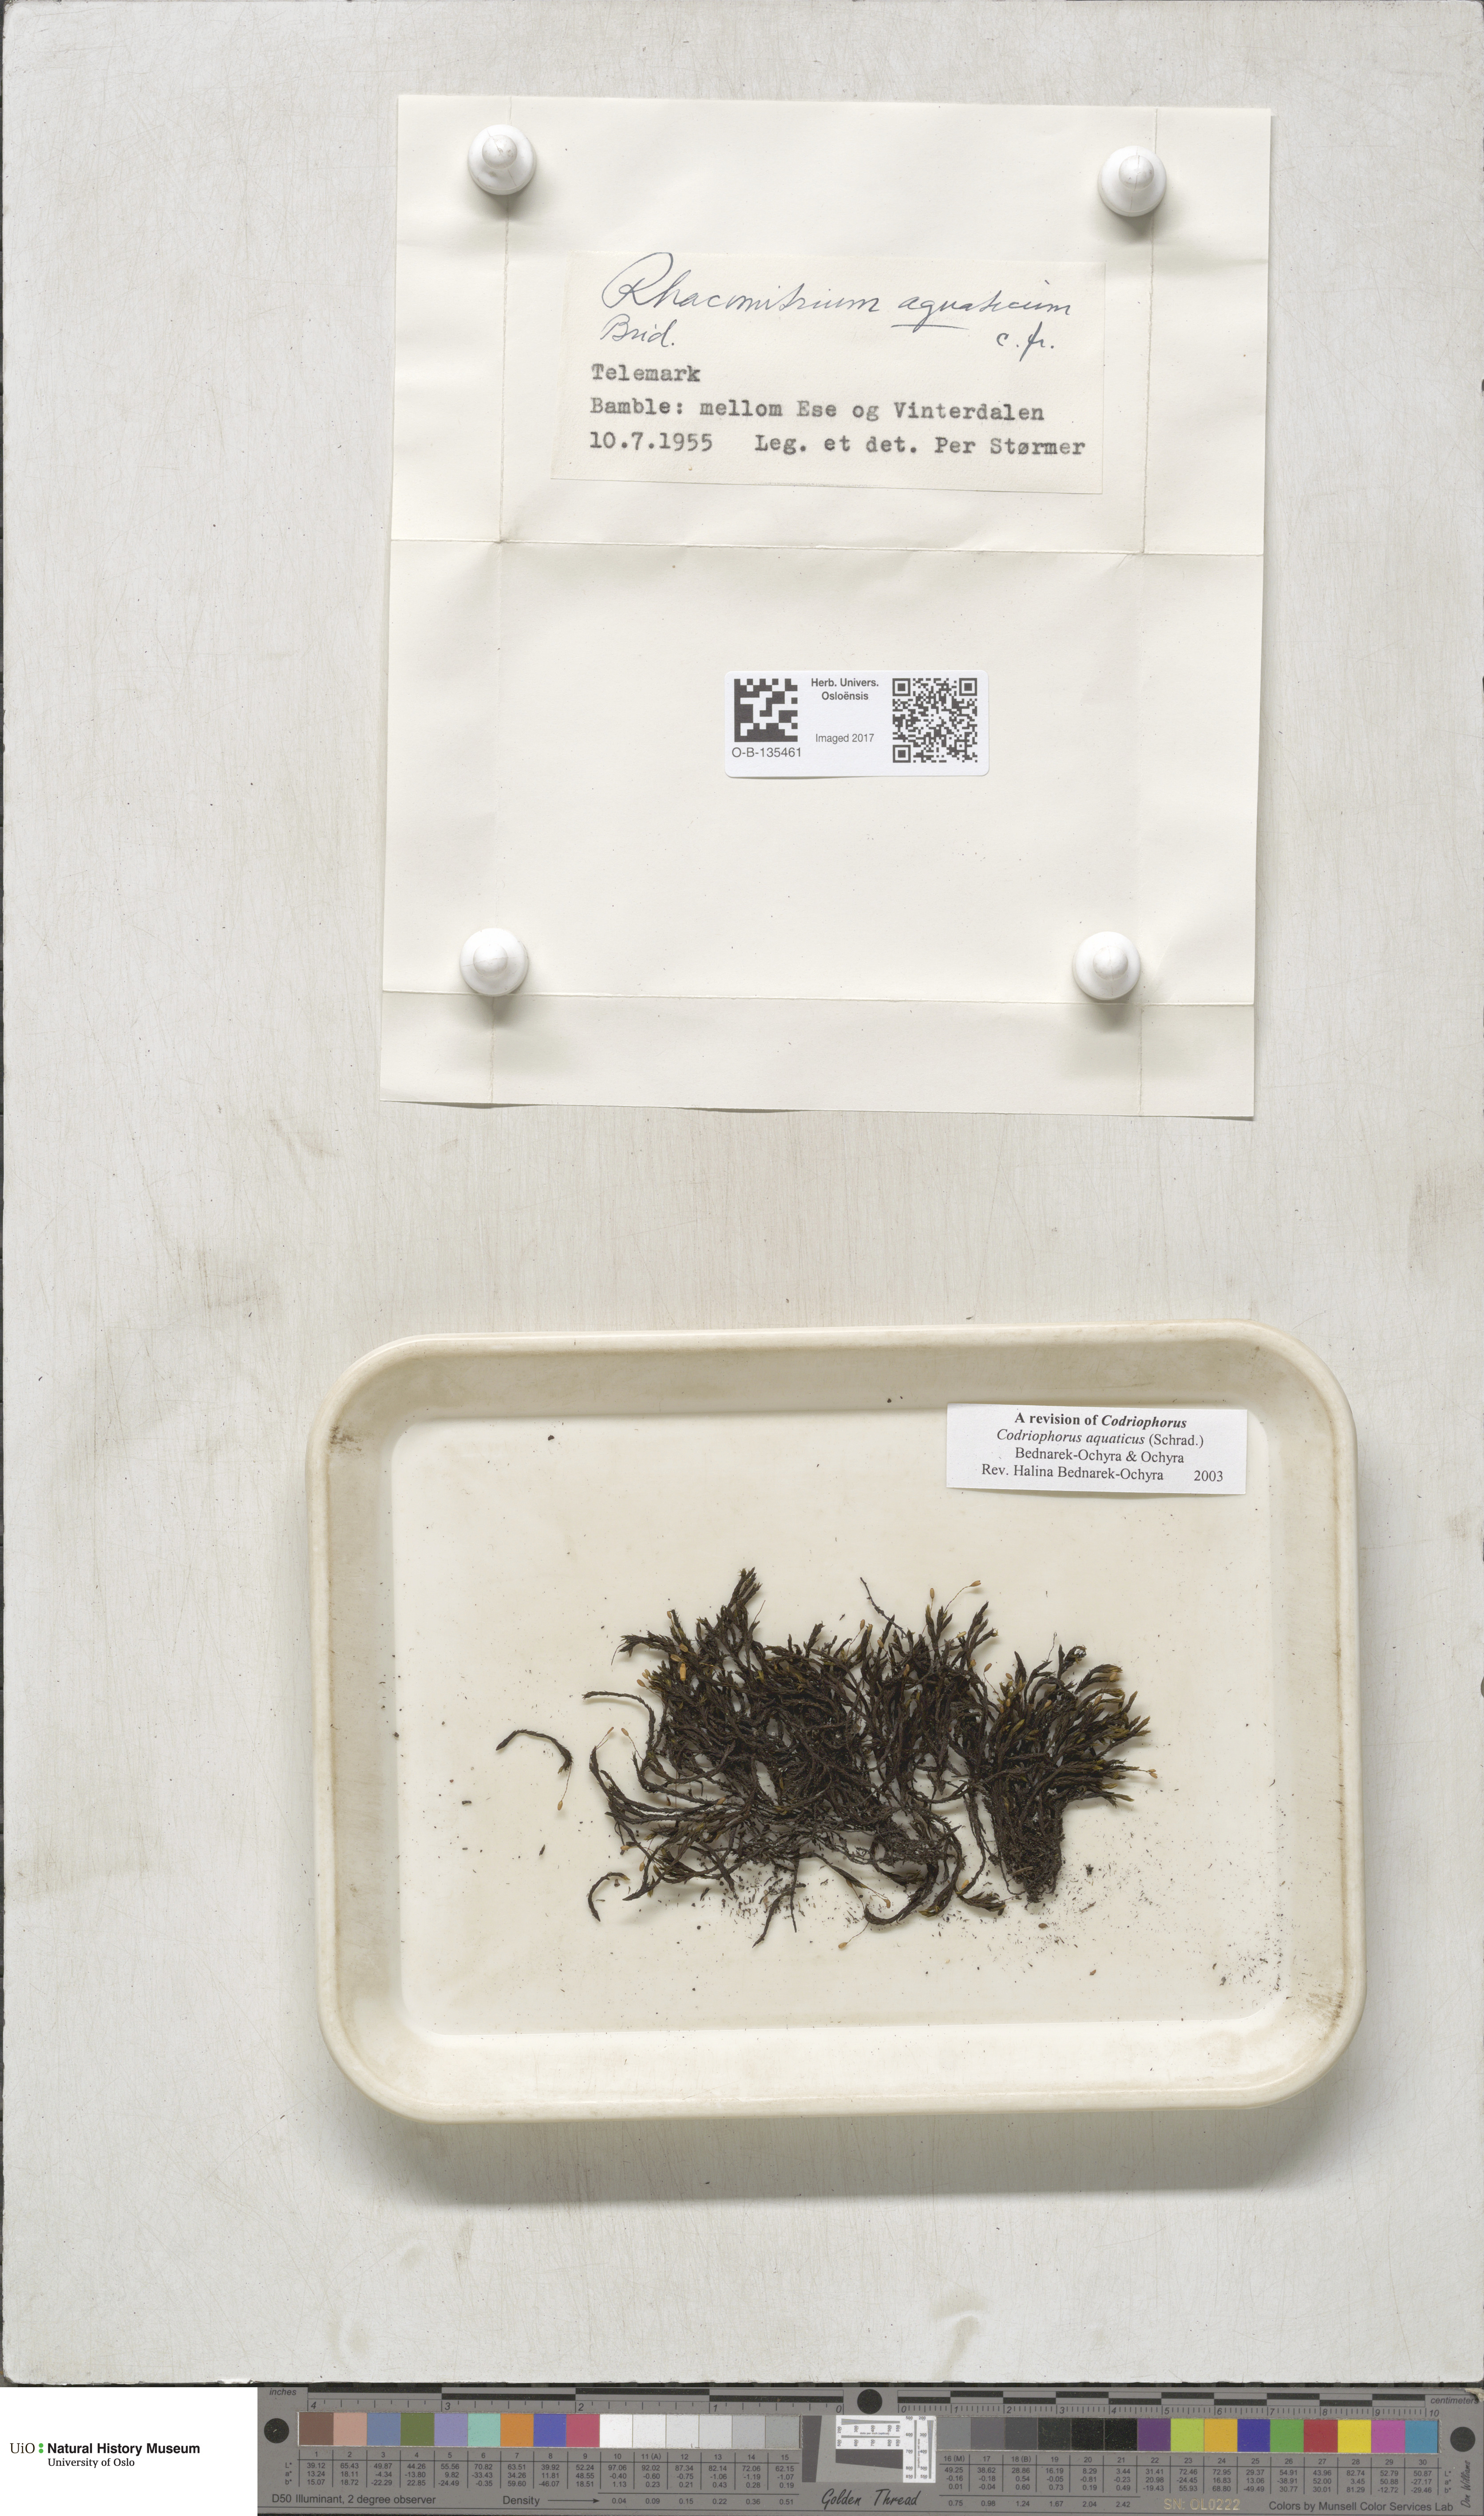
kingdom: Plantae
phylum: Bryophyta
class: Bryopsida
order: Grimmiales
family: Grimmiaceae
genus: Codriophorus
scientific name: Codriophorus aquaticus
